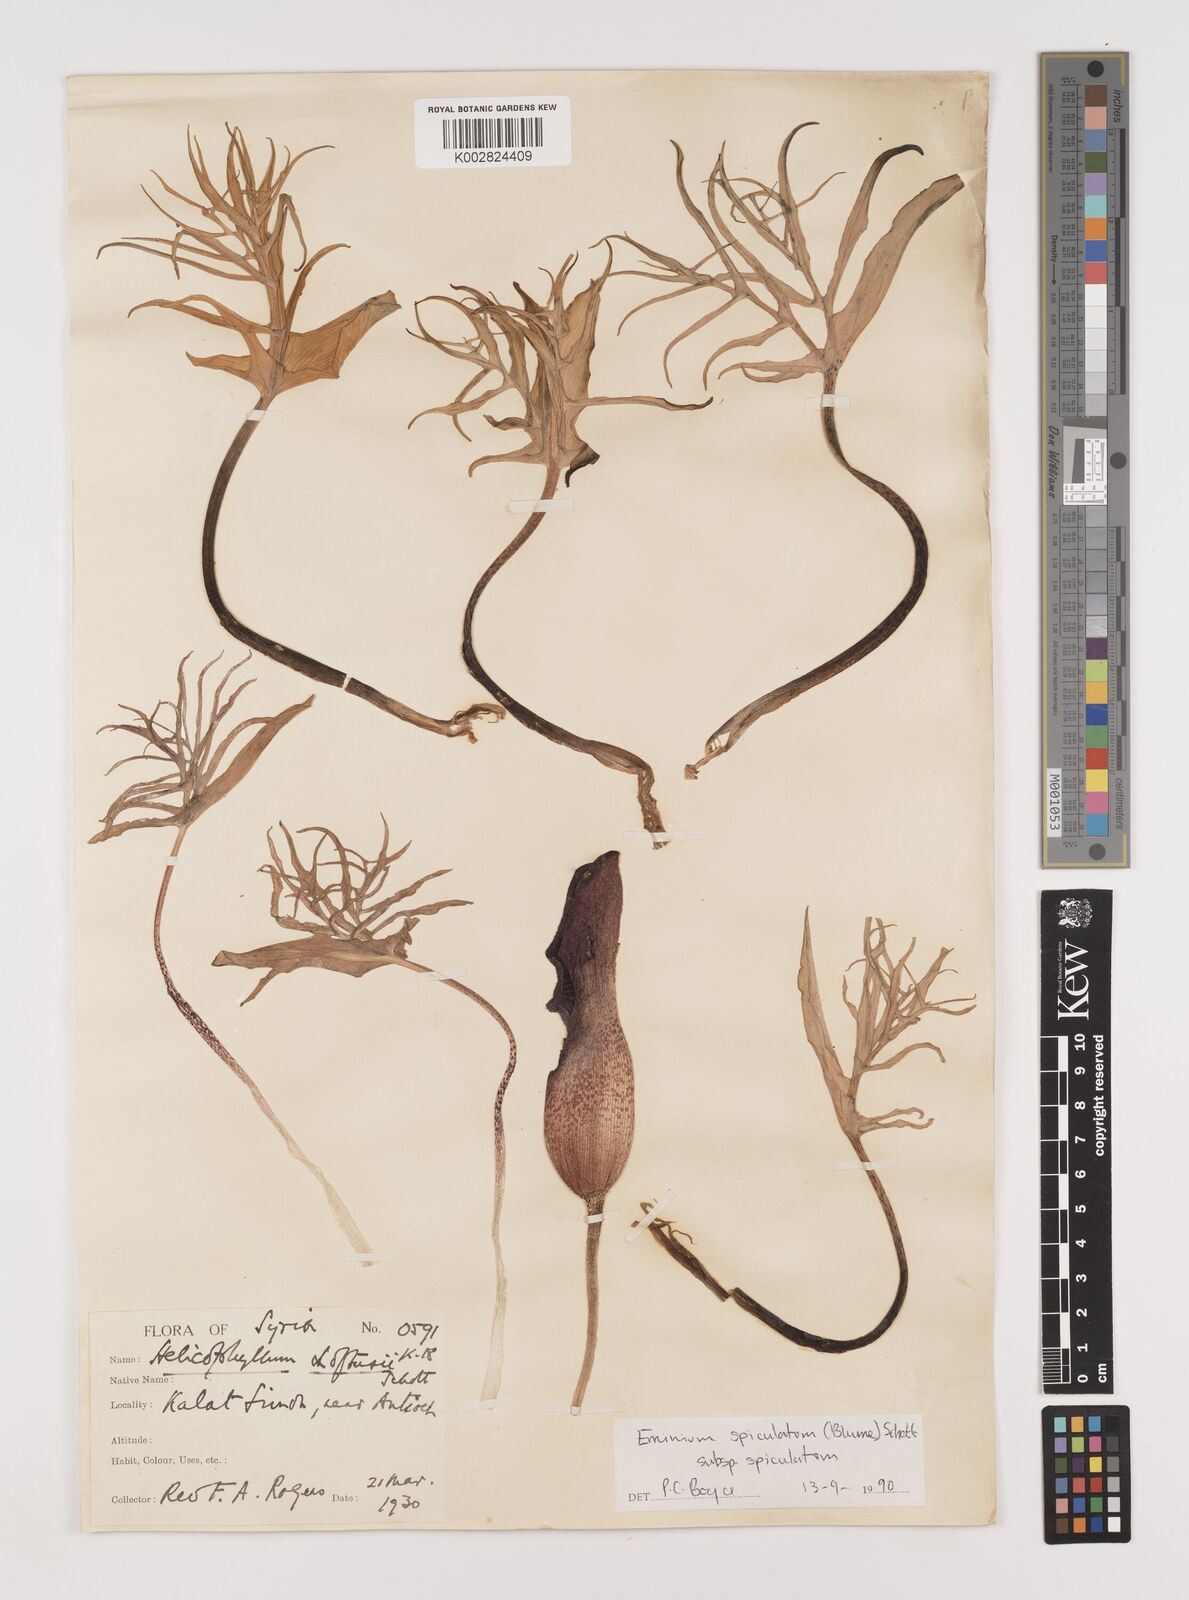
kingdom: Plantae
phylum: Tracheophyta
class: Liliopsida
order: Alismatales
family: Araceae
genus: Eminium
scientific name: Eminium spiculatum
